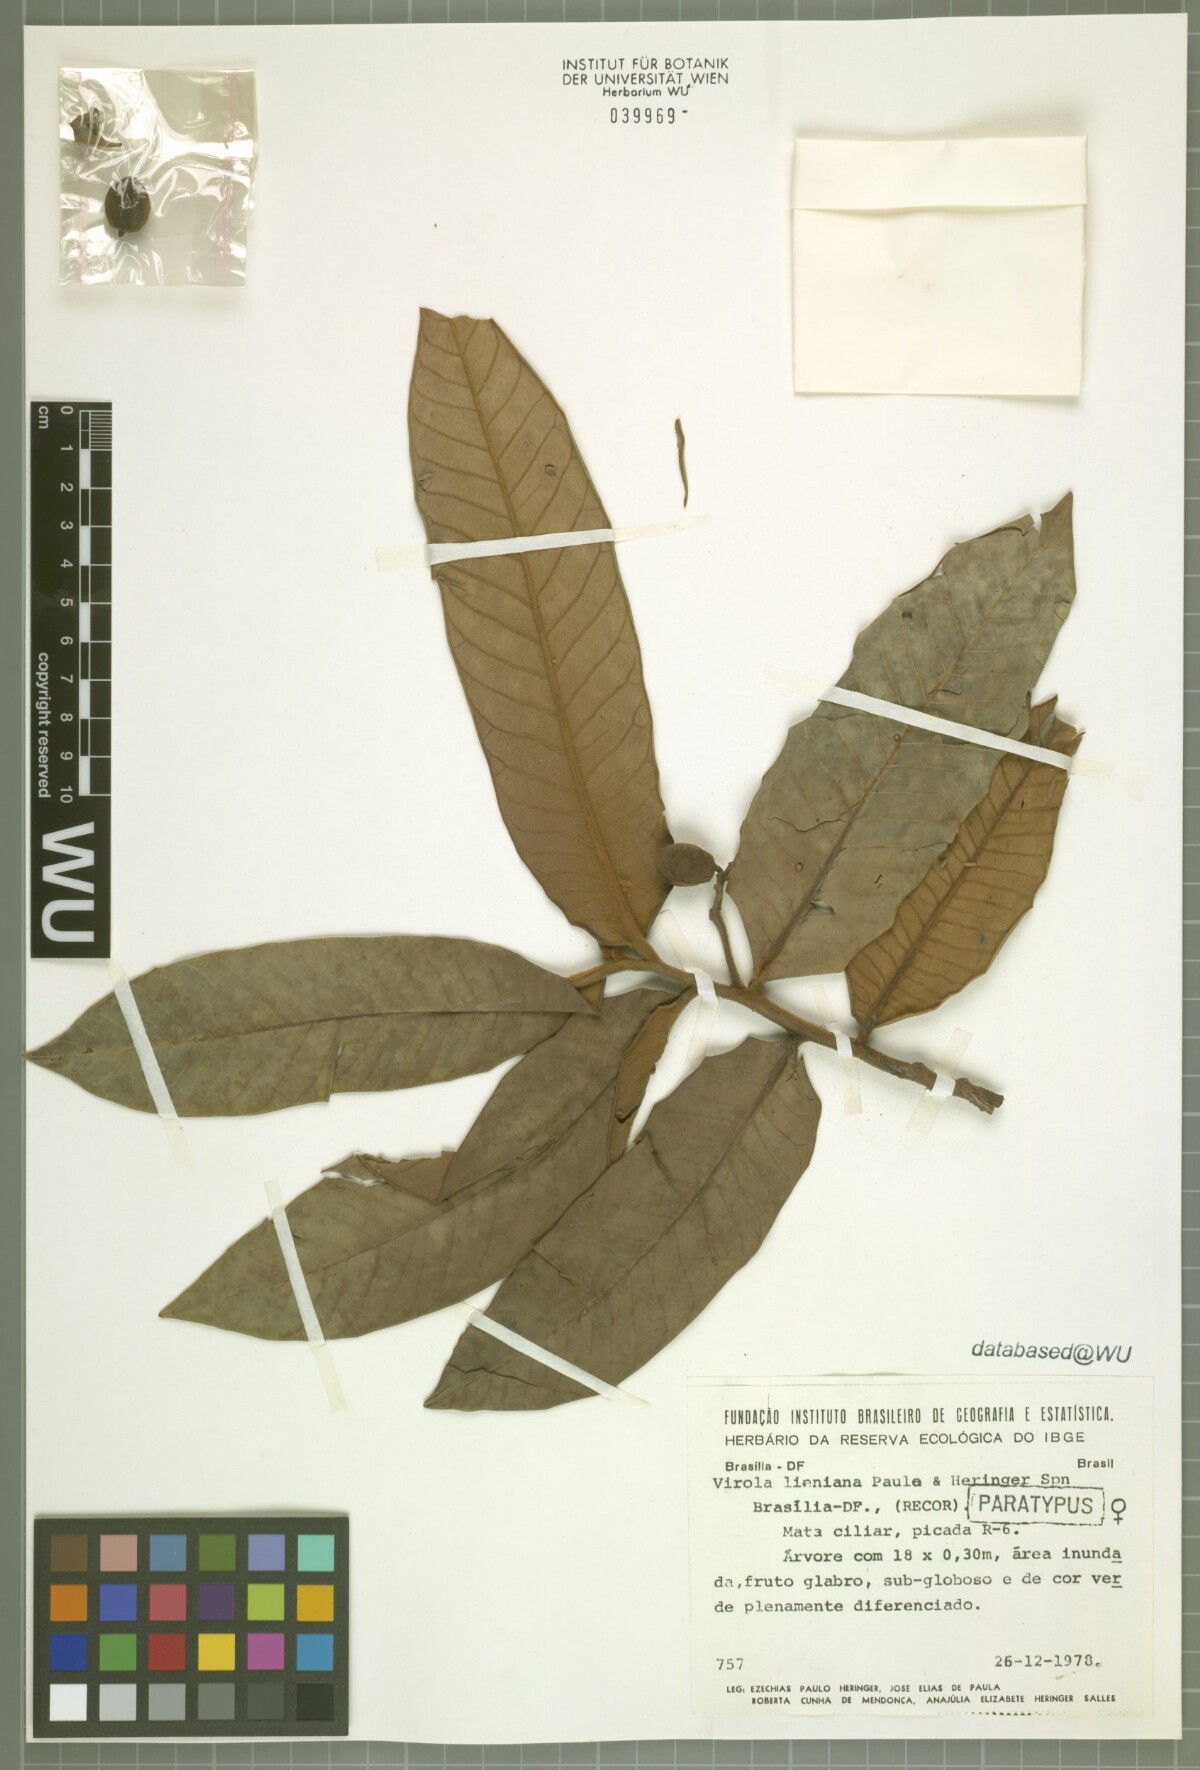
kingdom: Plantae
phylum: Tracheophyta
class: Magnoliopsida
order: Magnoliales
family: Myristicaceae
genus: Virola
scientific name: Virola lieneana
